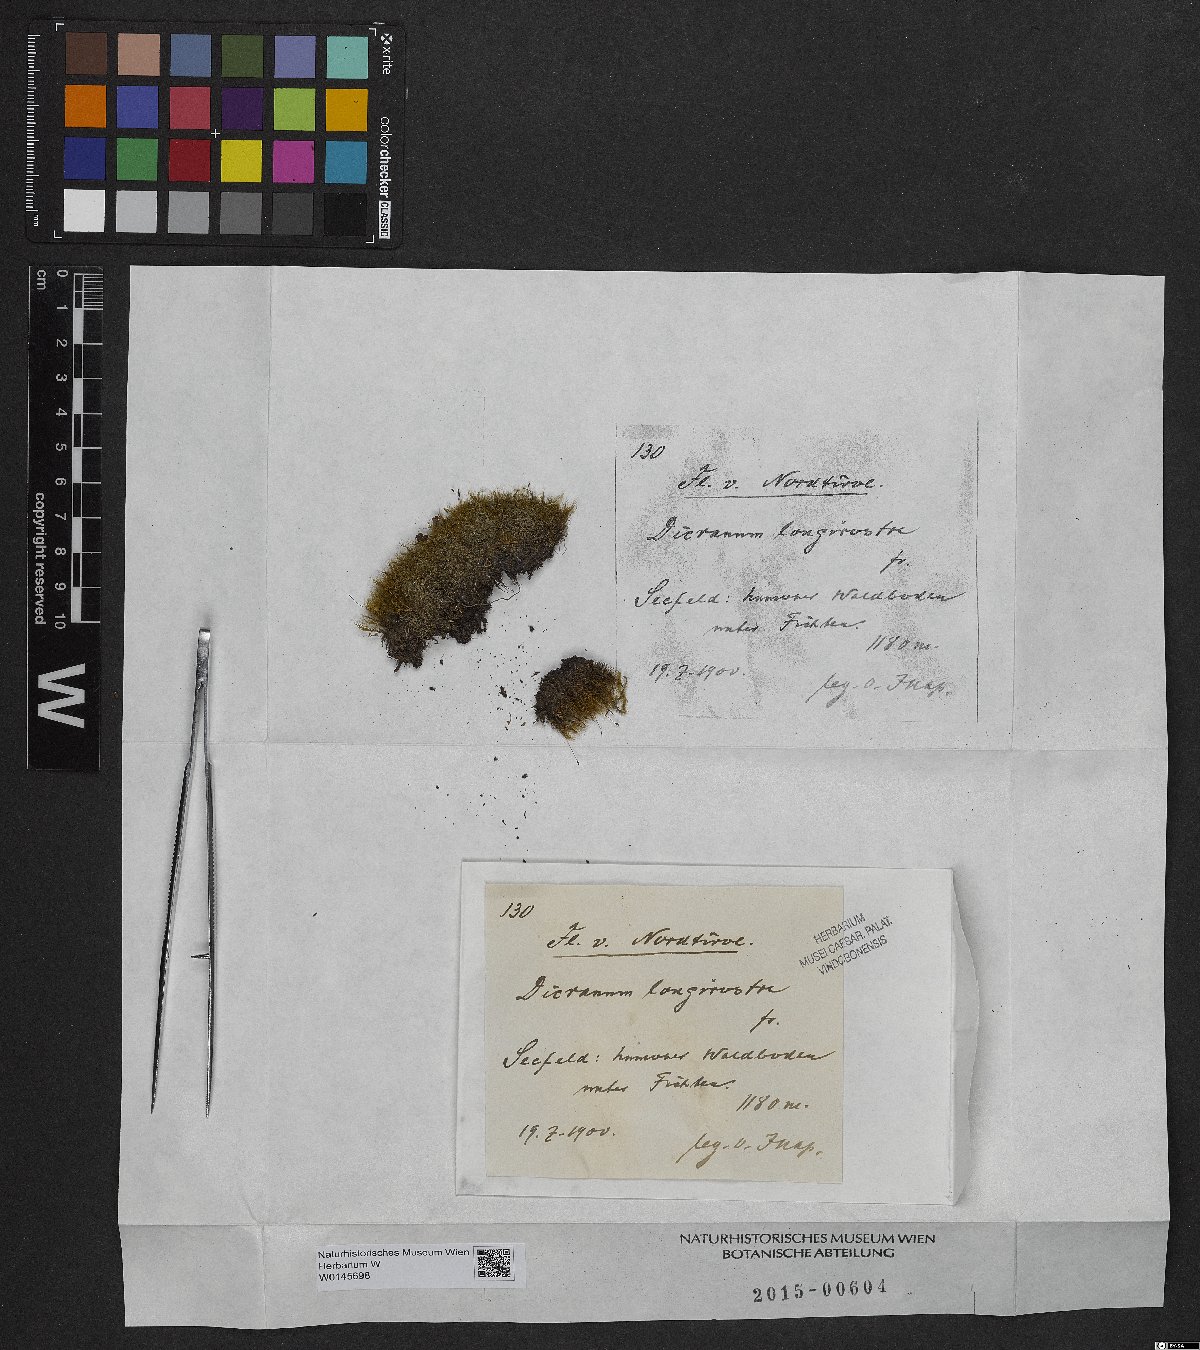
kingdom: Plantae
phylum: Bryophyta
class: Bryopsida
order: Dicranales
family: Leucobryaceae
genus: Dicranodontium
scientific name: Dicranodontium denudatum
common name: Beaked bow moss
